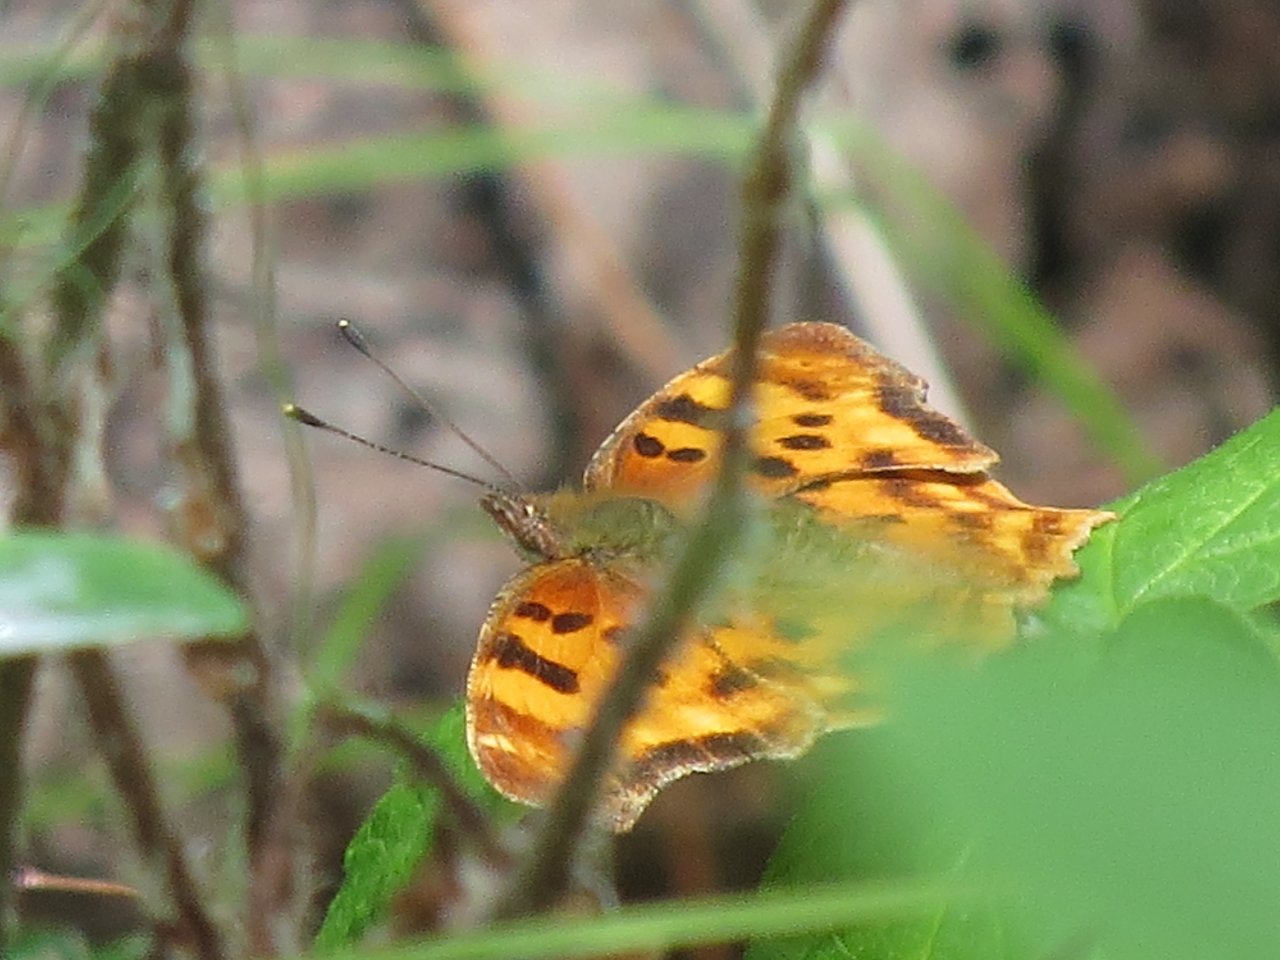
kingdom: Animalia
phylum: Arthropoda
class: Insecta
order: Lepidoptera
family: Nymphalidae
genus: Polygonia
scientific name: Polygonia satyrus
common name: Satyr Comma
